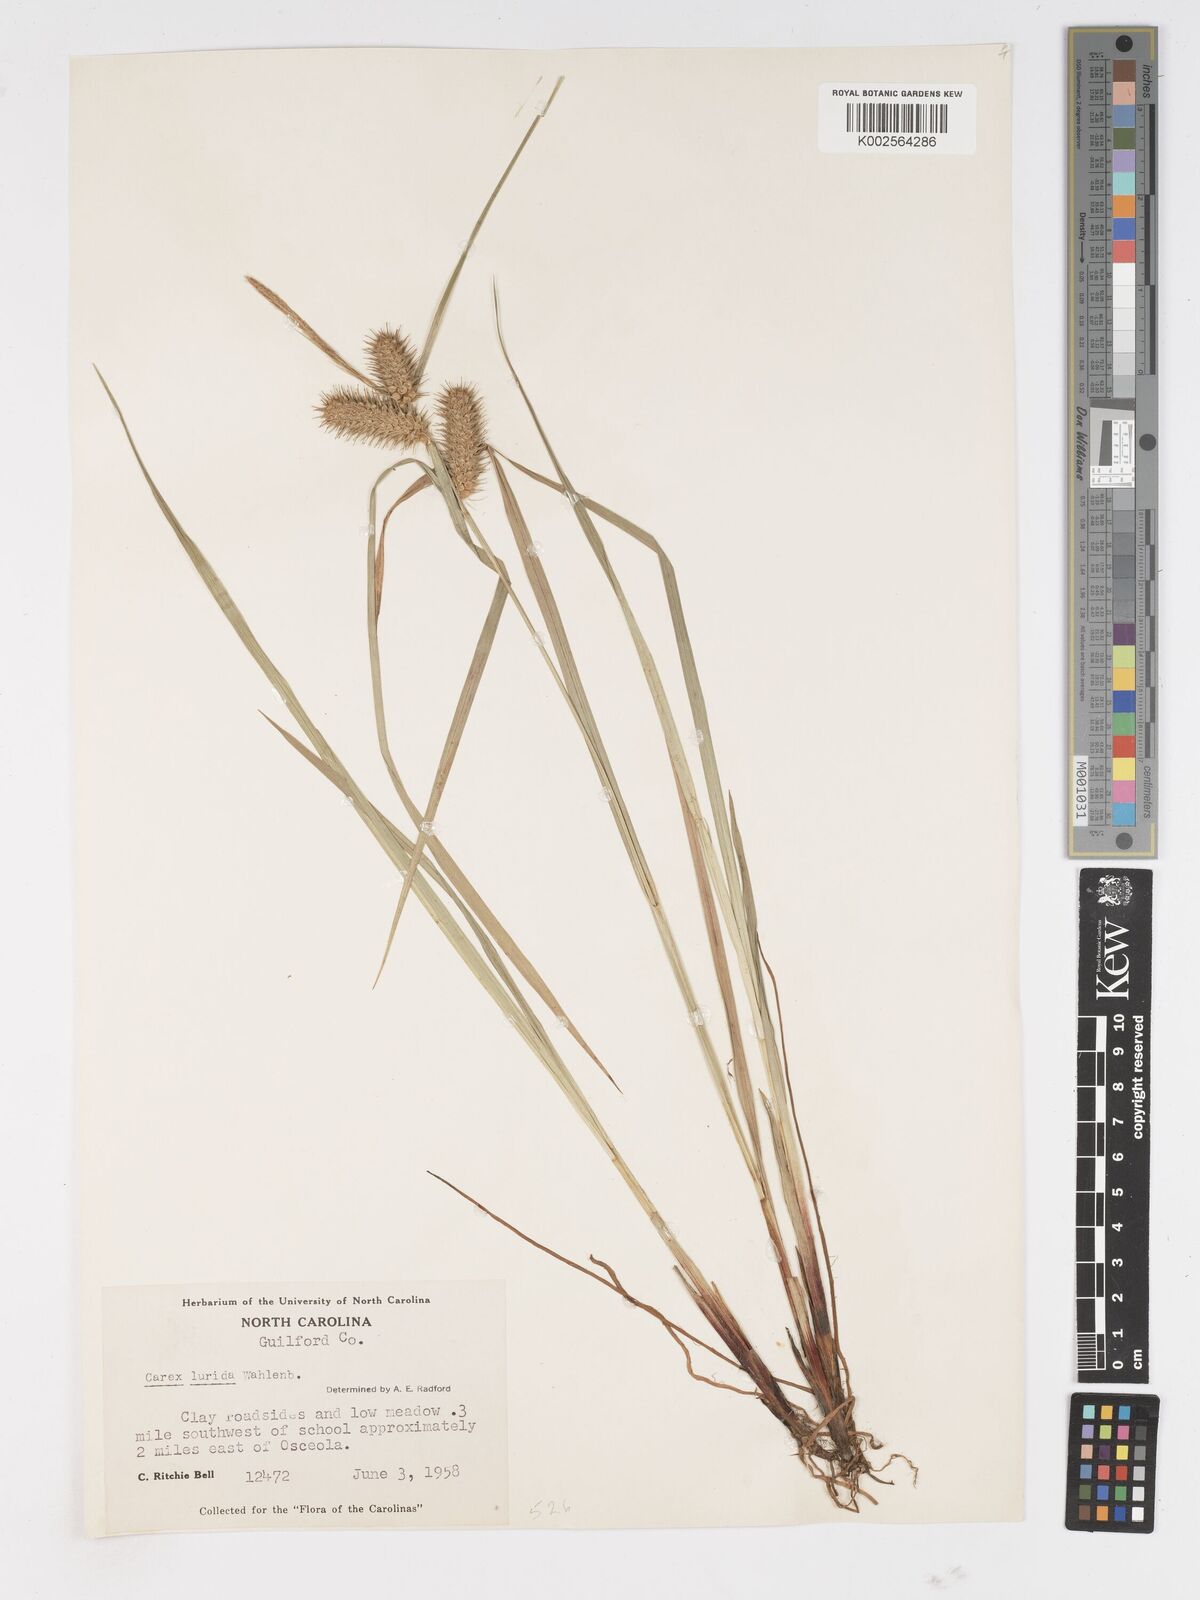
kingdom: Plantae
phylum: Tracheophyta
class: Liliopsida
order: Poales
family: Cyperaceae
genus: Carex
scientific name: Carex lurida
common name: Sallow sedge
